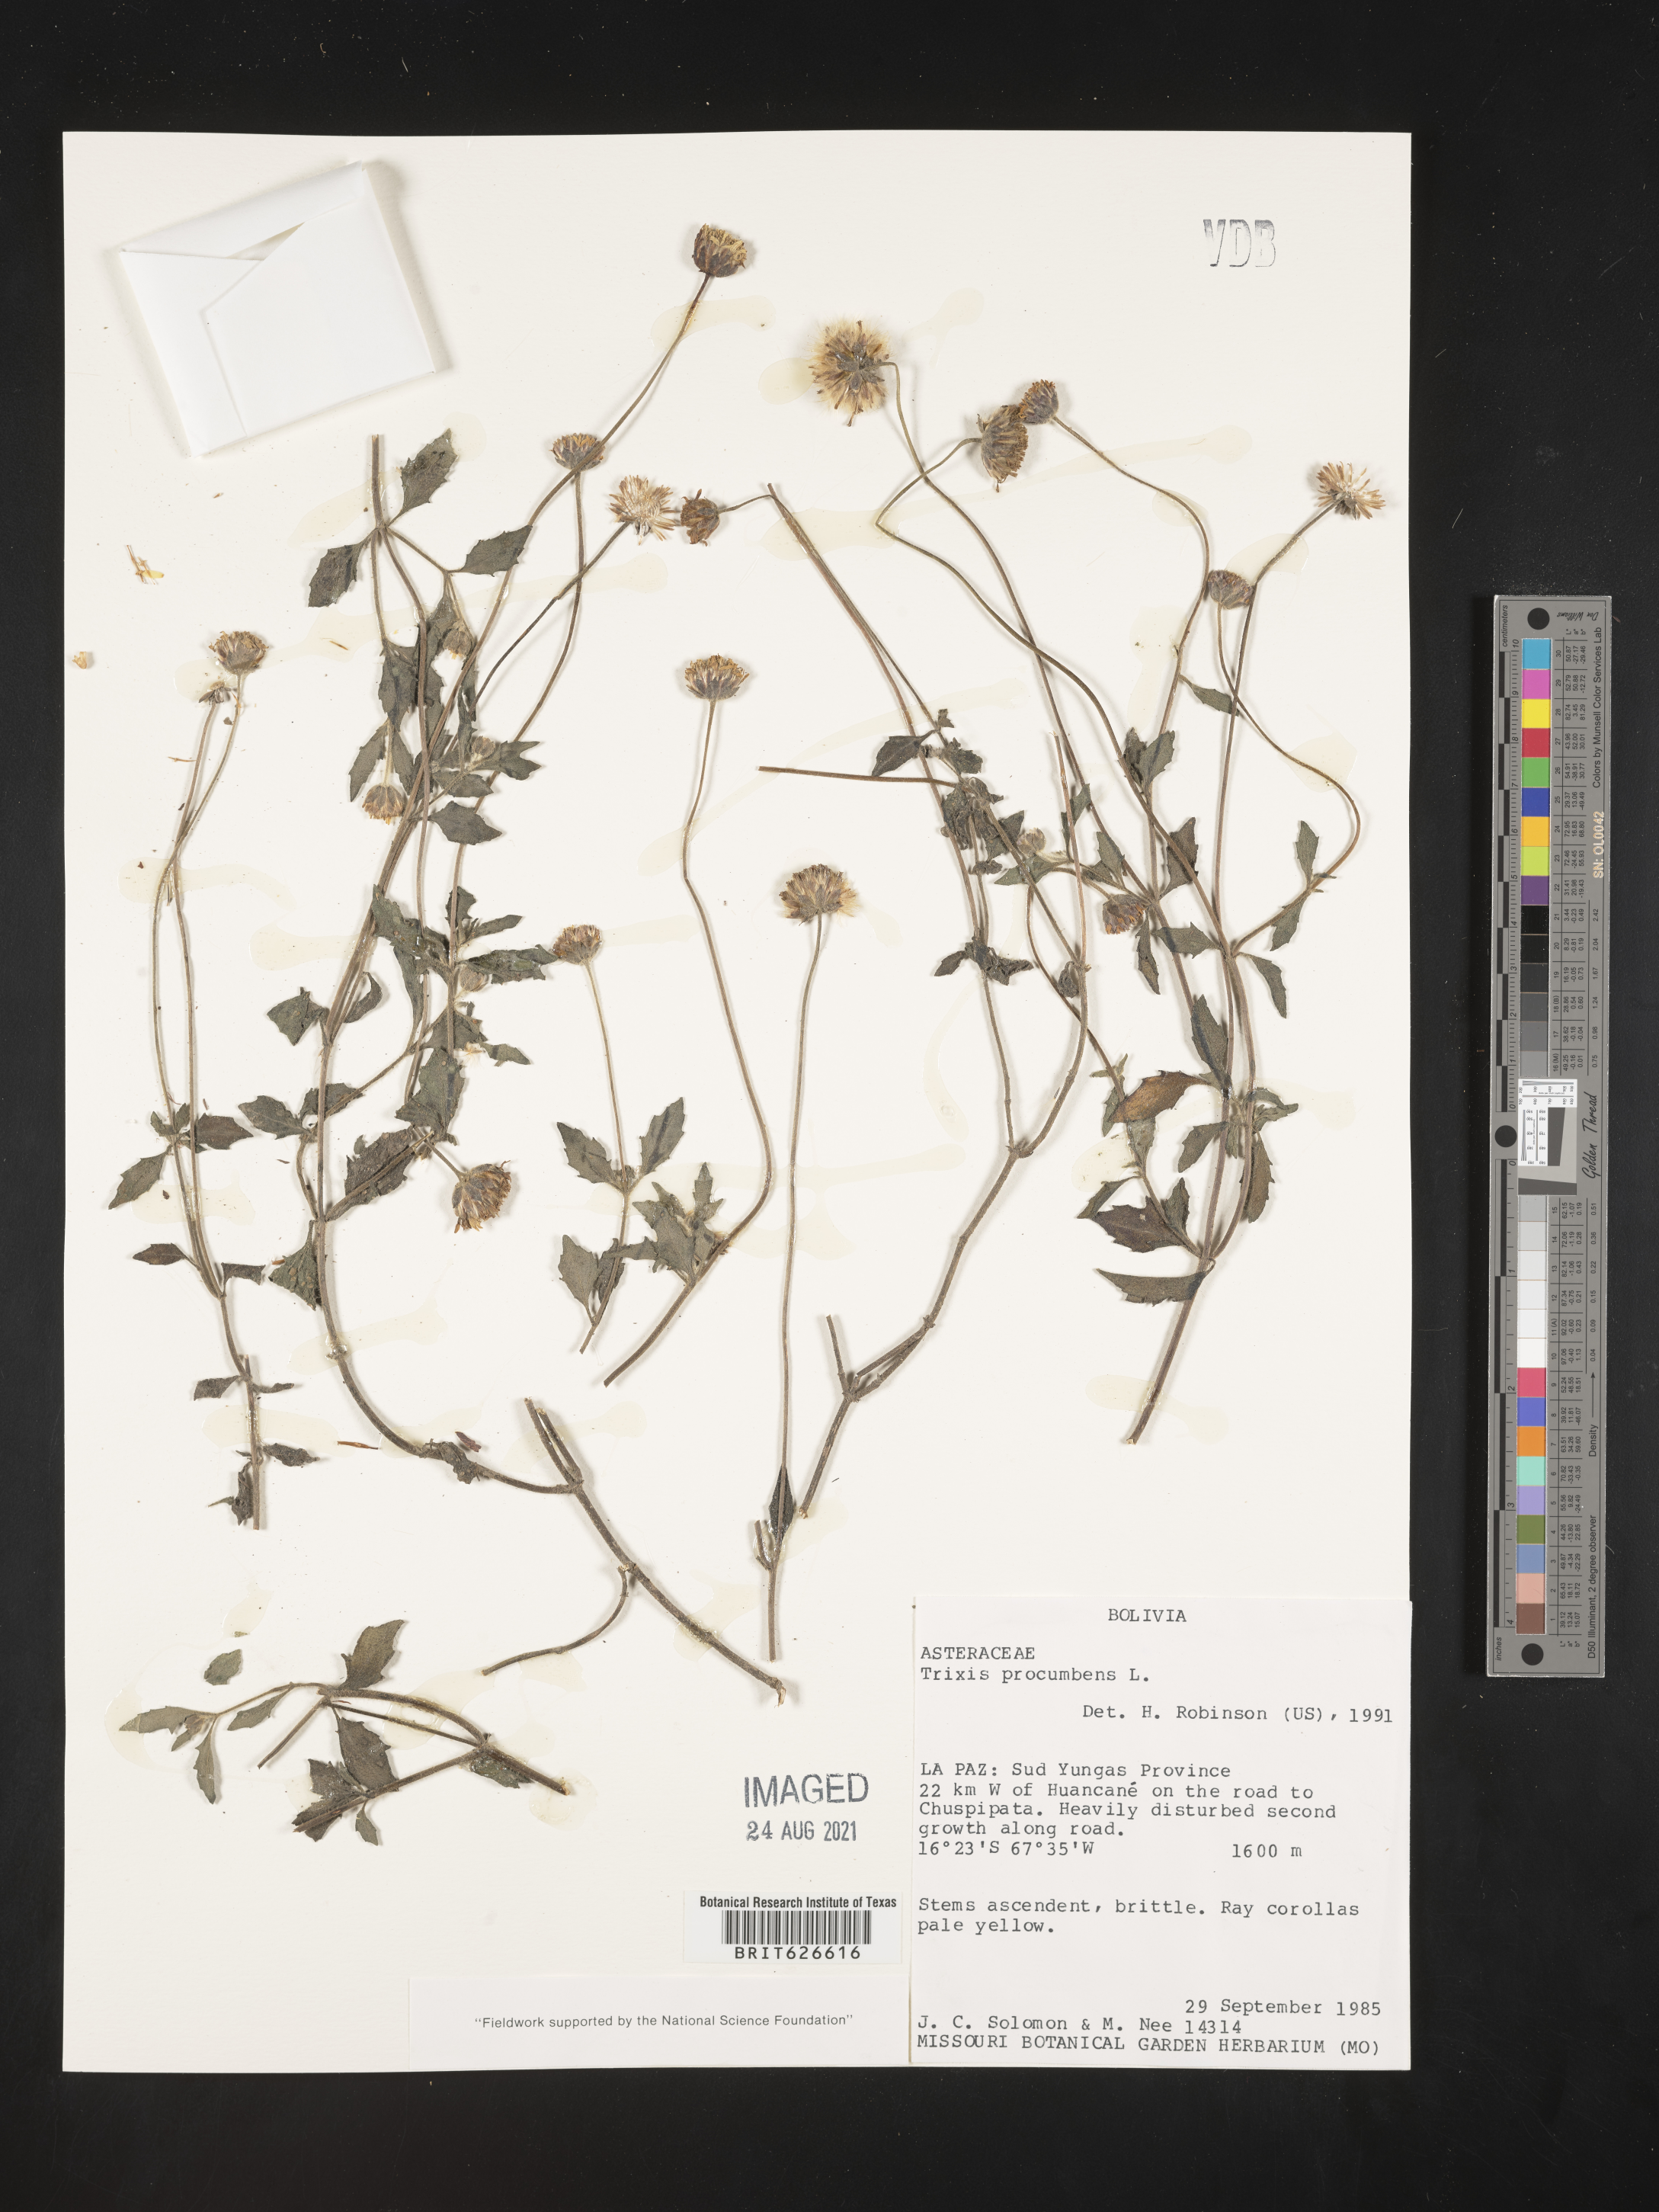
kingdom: Plantae
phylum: Tracheophyta
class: Magnoliopsida
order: Asterales
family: Asteraceae
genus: Trixis
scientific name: Trixis
